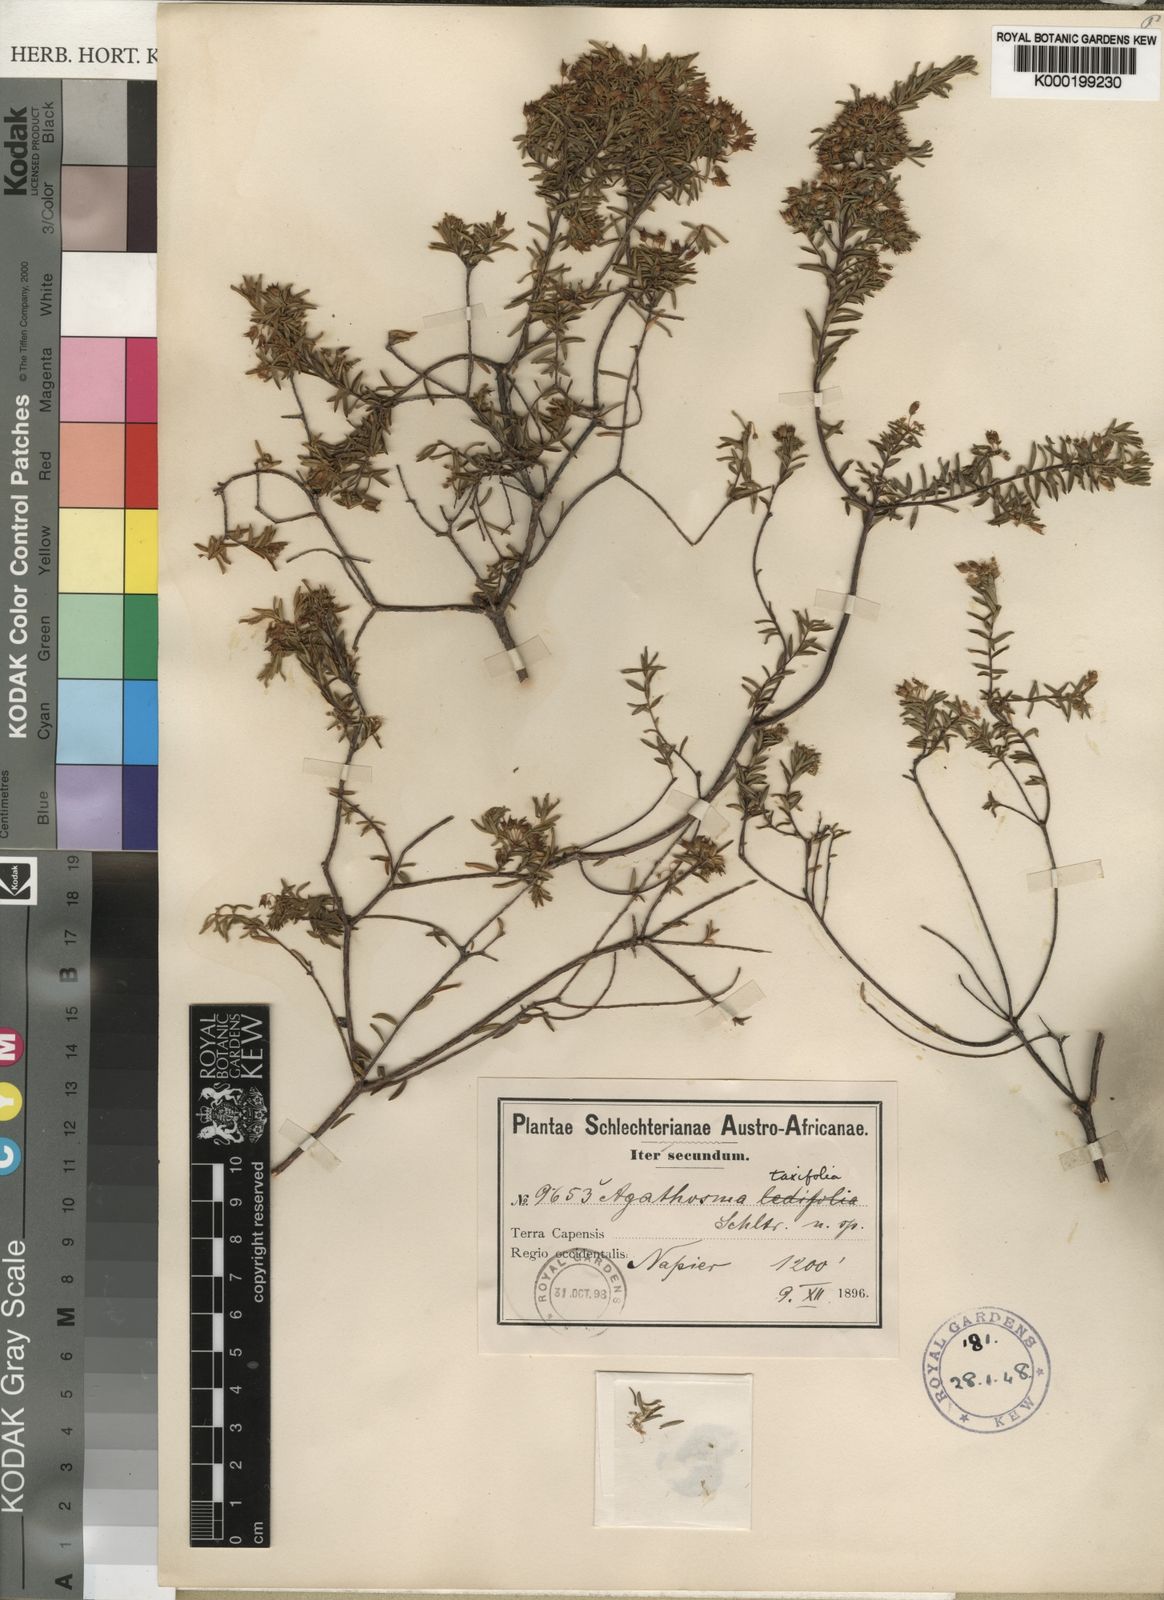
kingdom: Plantae
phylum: Tracheophyta
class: Magnoliopsida
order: Sapindales
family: Rutaceae
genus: Agathosma
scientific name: Agathosma bifida
